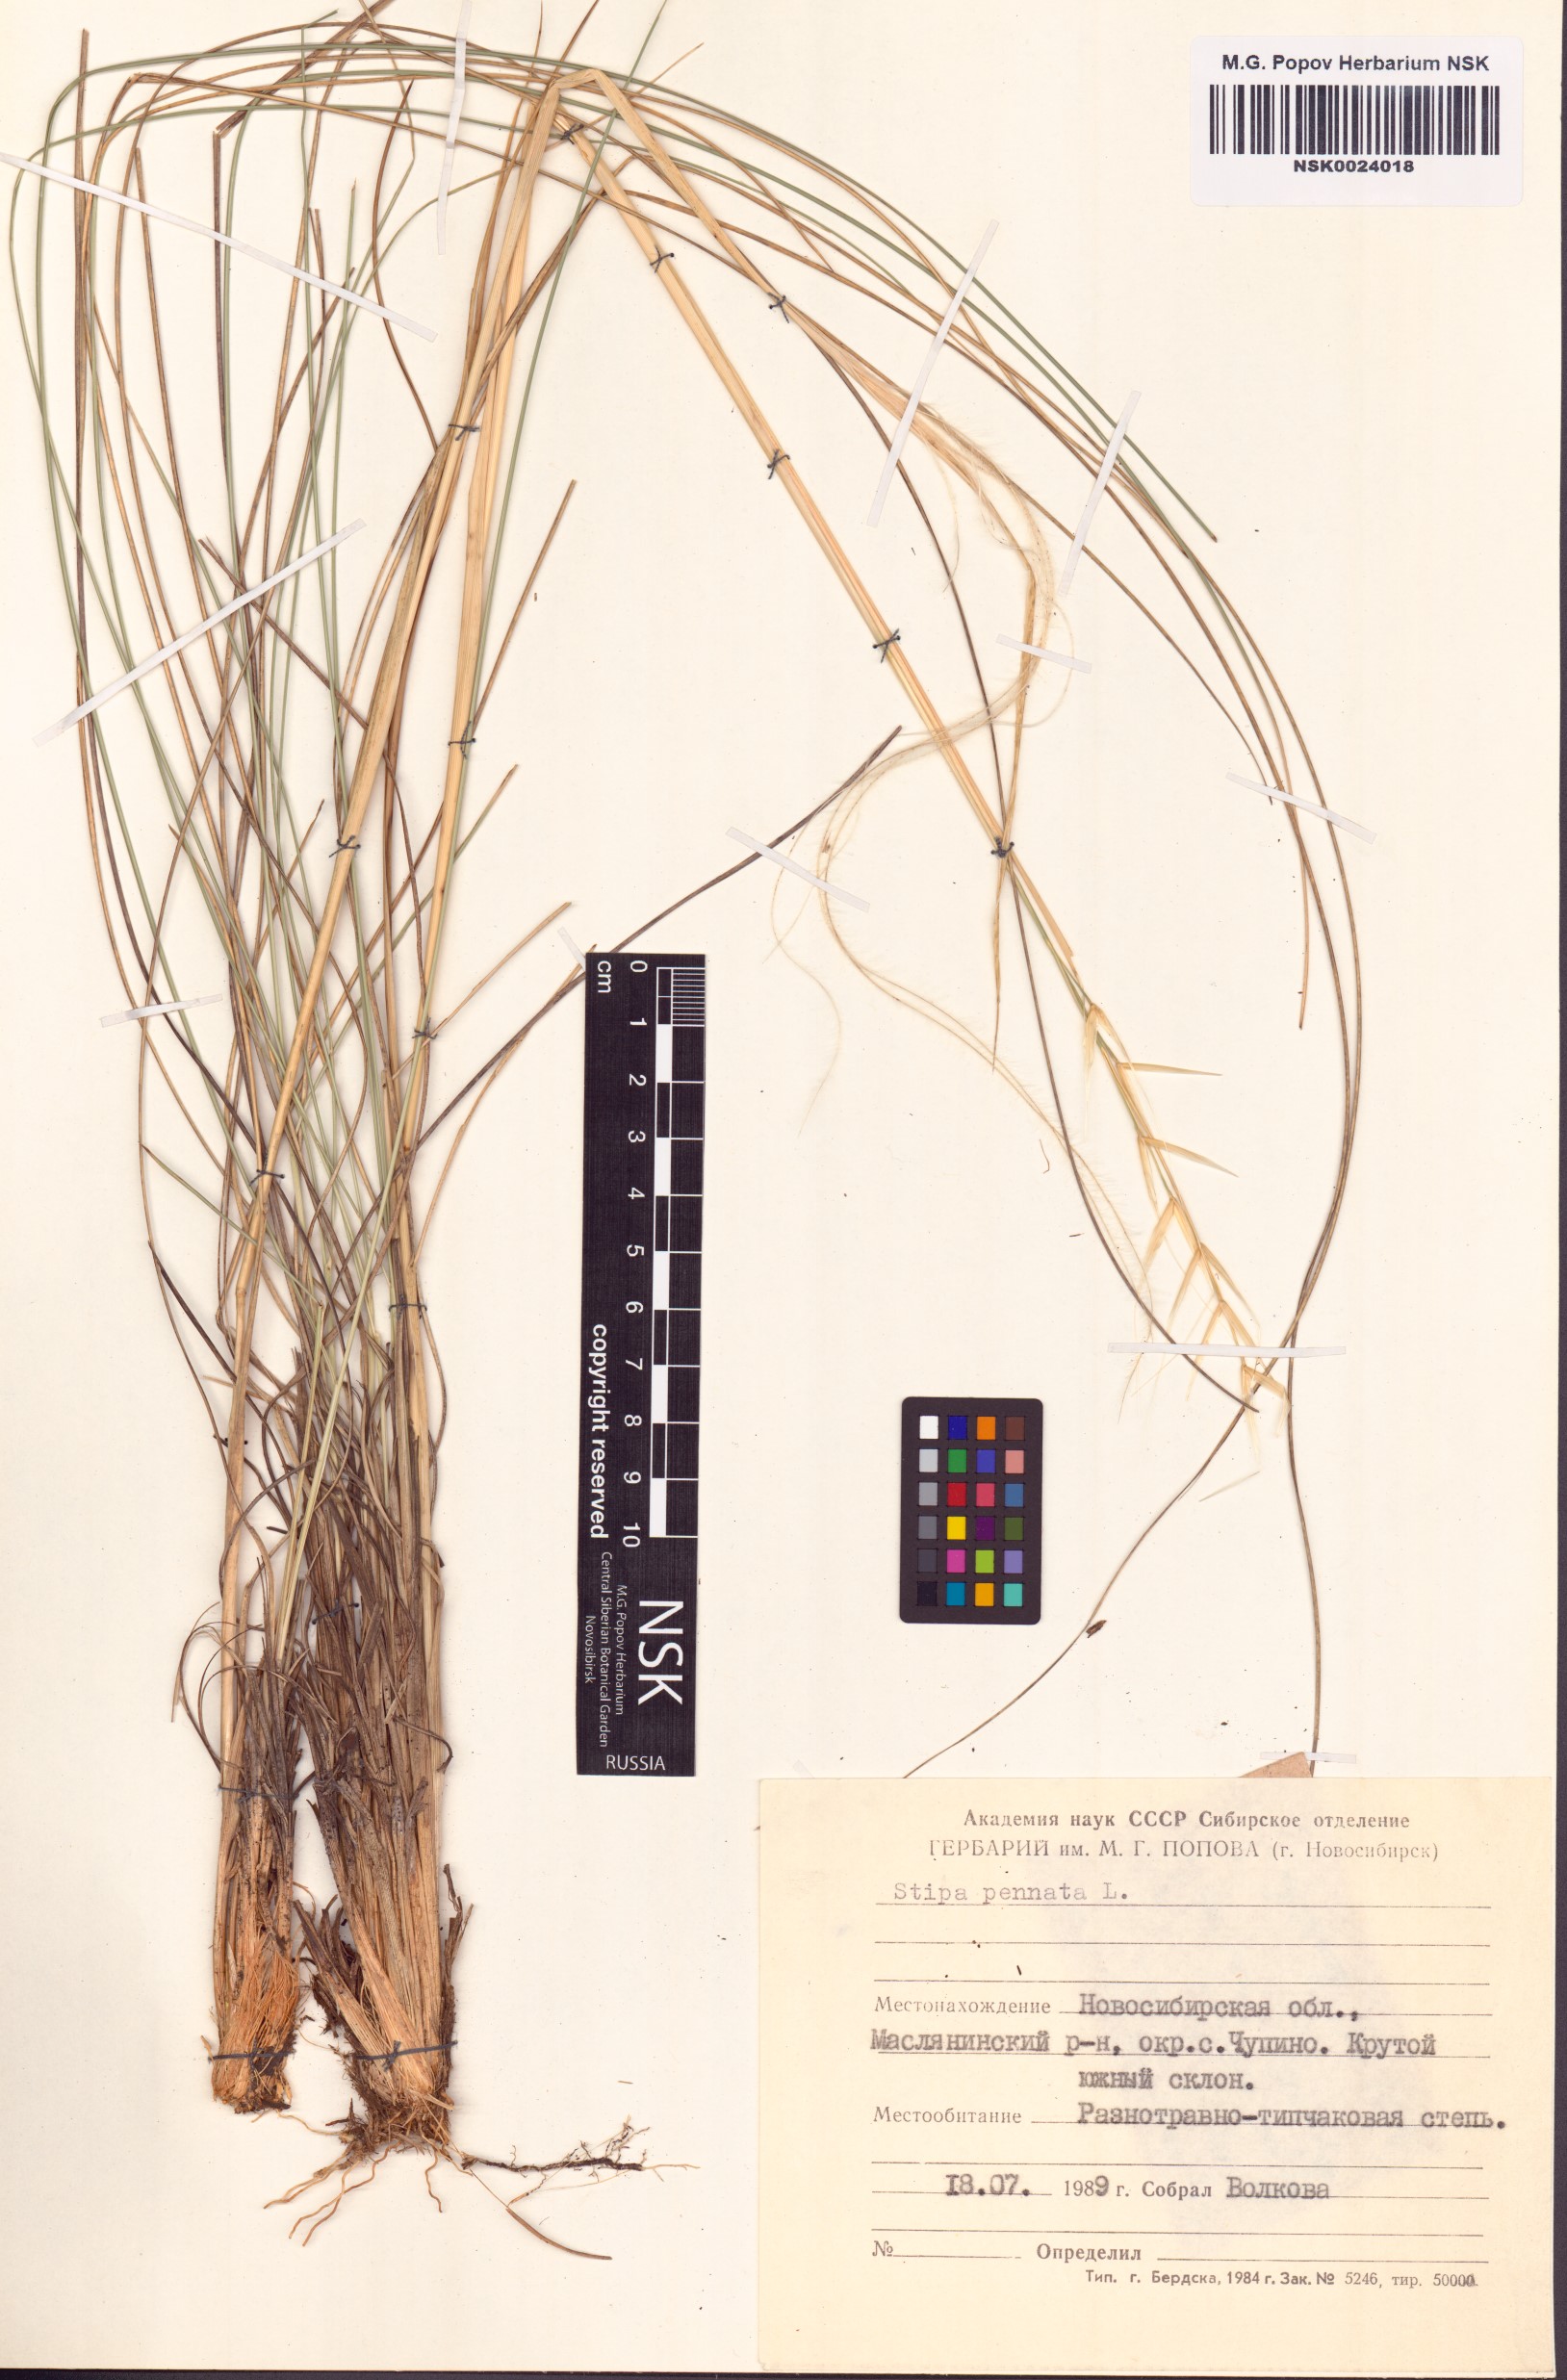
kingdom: Plantae
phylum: Tracheophyta
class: Liliopsida
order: Poales
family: Poaceae
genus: Stipa
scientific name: Stipa pennata
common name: European feather grass
